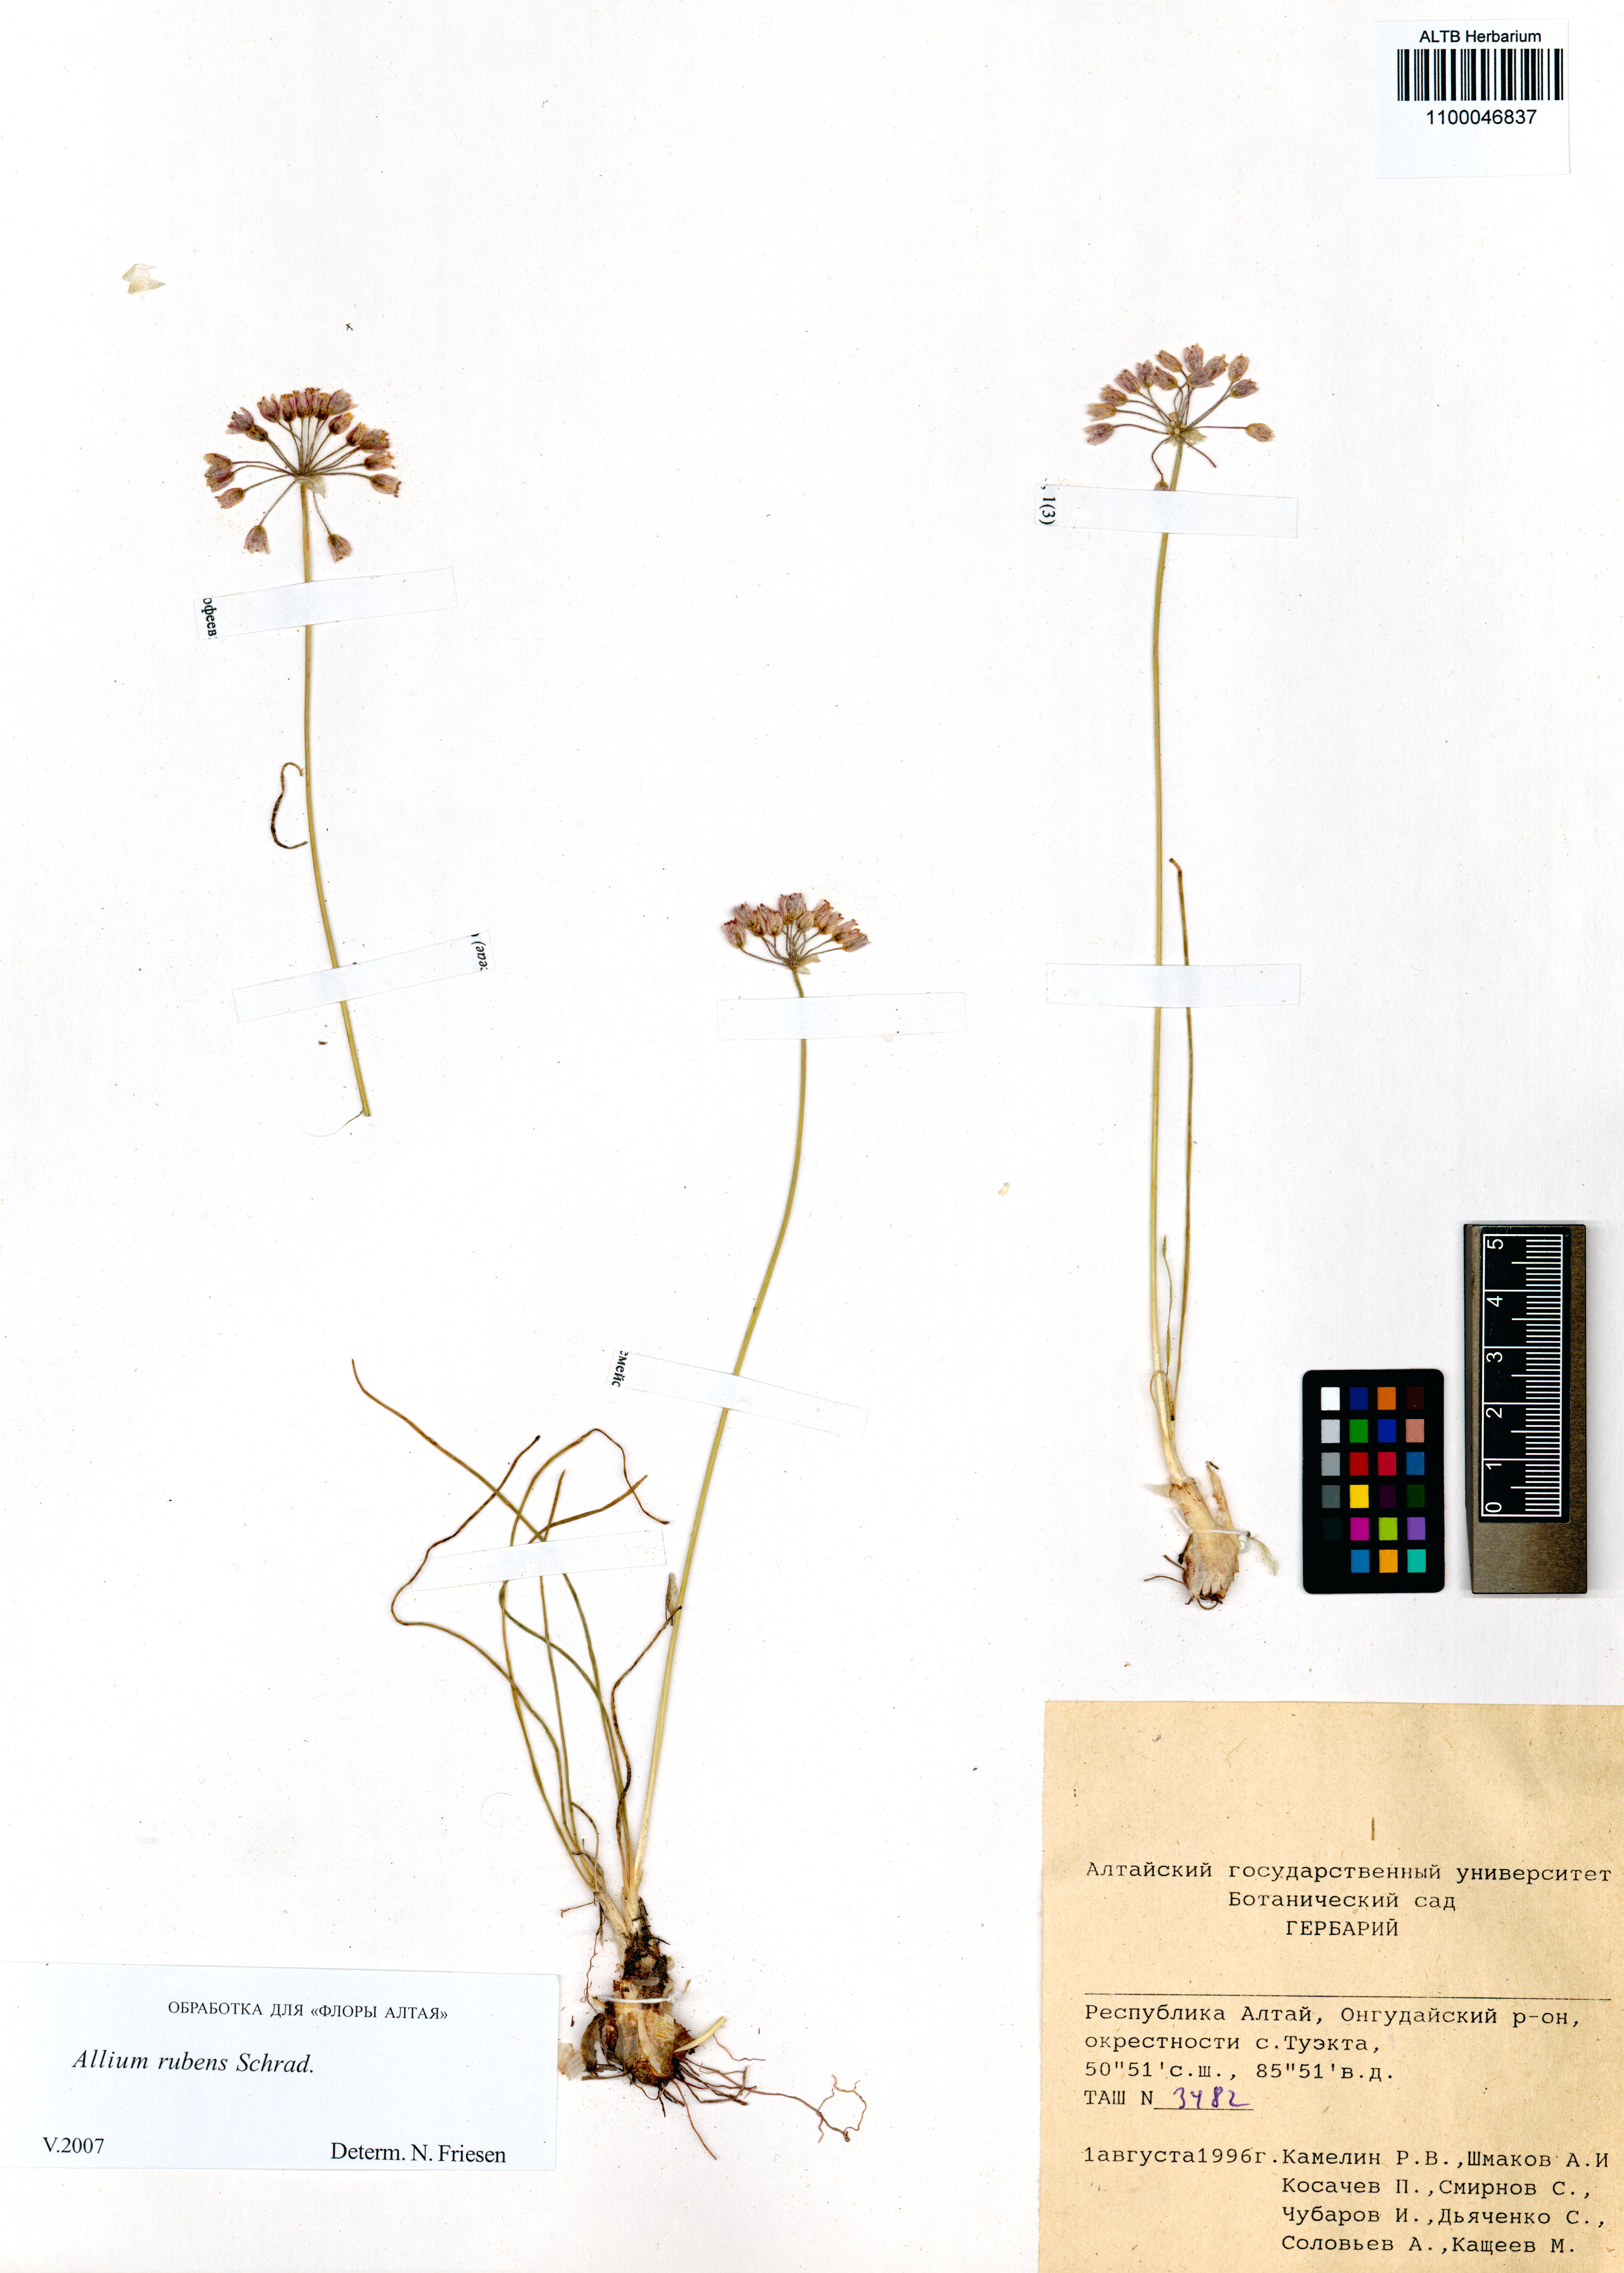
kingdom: Plantae
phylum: Tracheophyta
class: Liliopsida
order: Asparagales
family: Amaryllidaceae
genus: Allium
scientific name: Allium rubens
